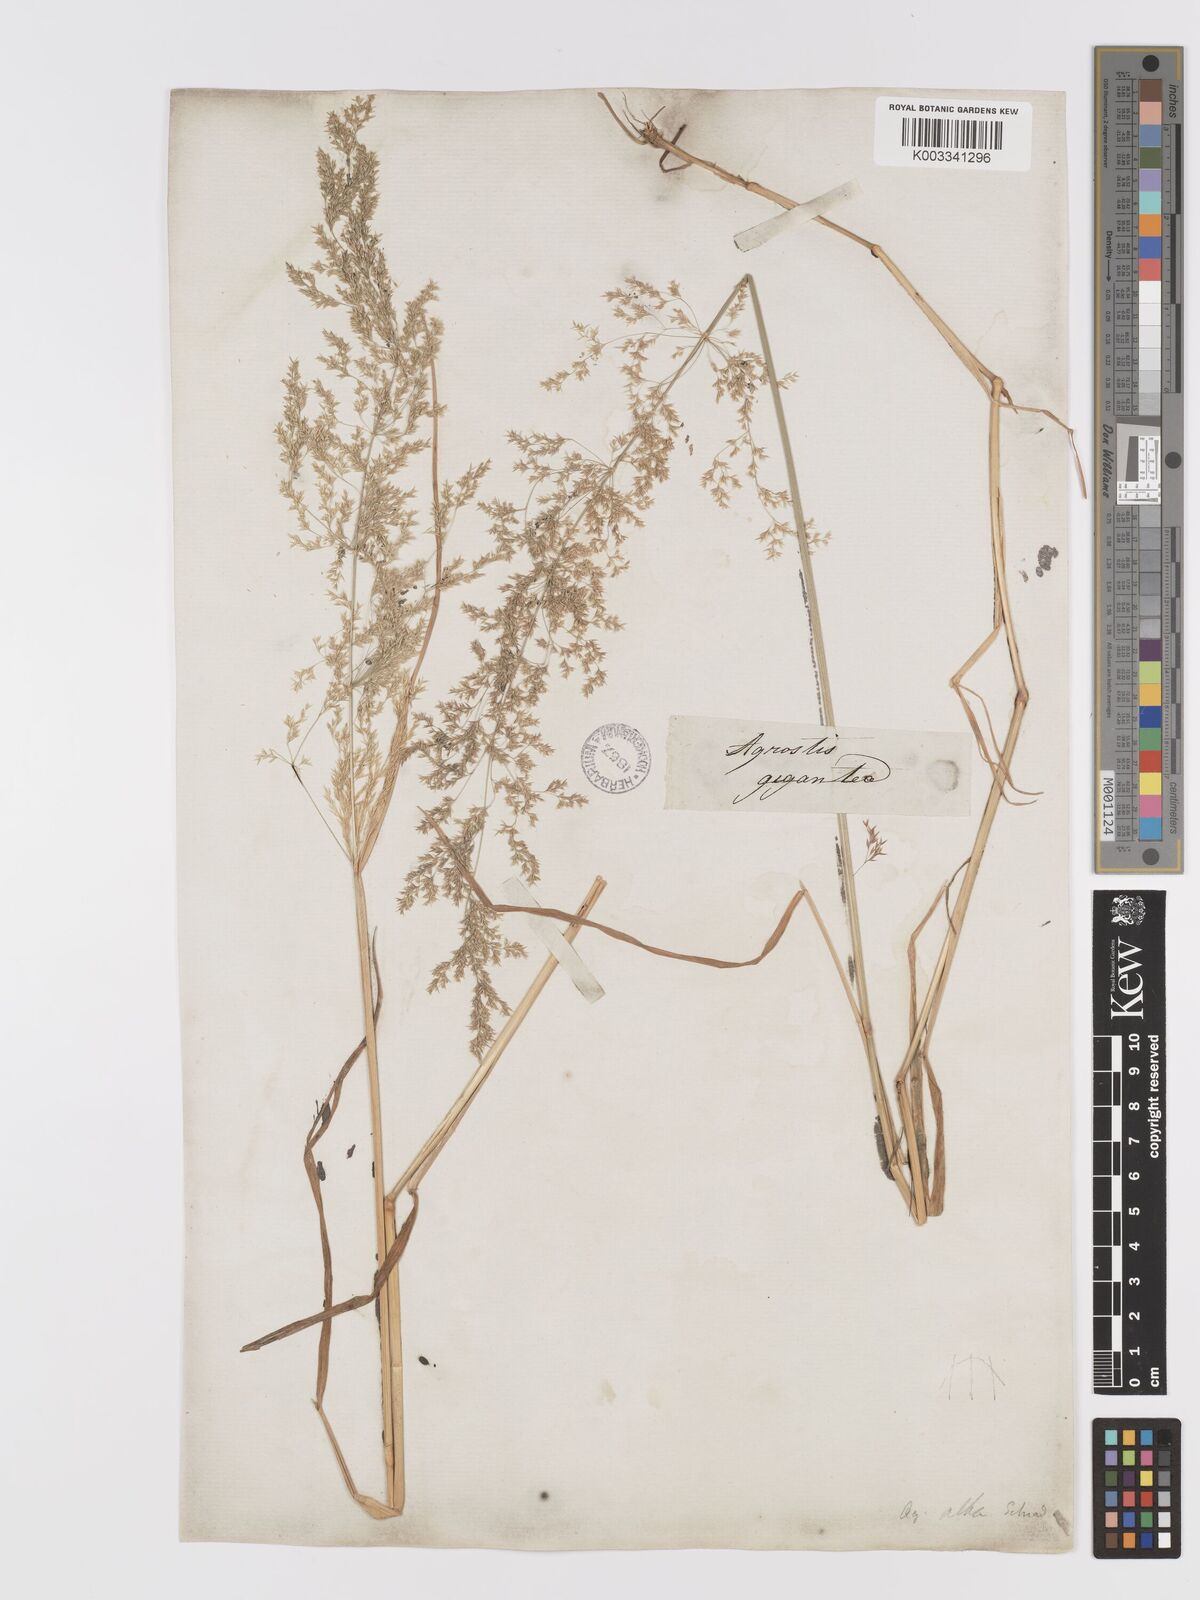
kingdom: Plantae
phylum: Tracheophyta
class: Liliopsida
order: Poales
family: Poaceae
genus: Agrostis
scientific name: Agrostis gigantea
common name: Black bent
